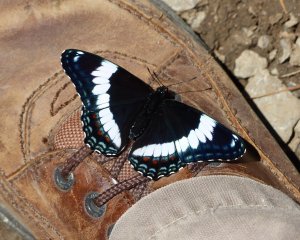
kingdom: Animalia
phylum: Arthropoda
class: Insecta
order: Lepidoptera
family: Nymphalidae
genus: Limenitis
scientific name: Limenitis arthemis
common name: Red-spotted Admiral
